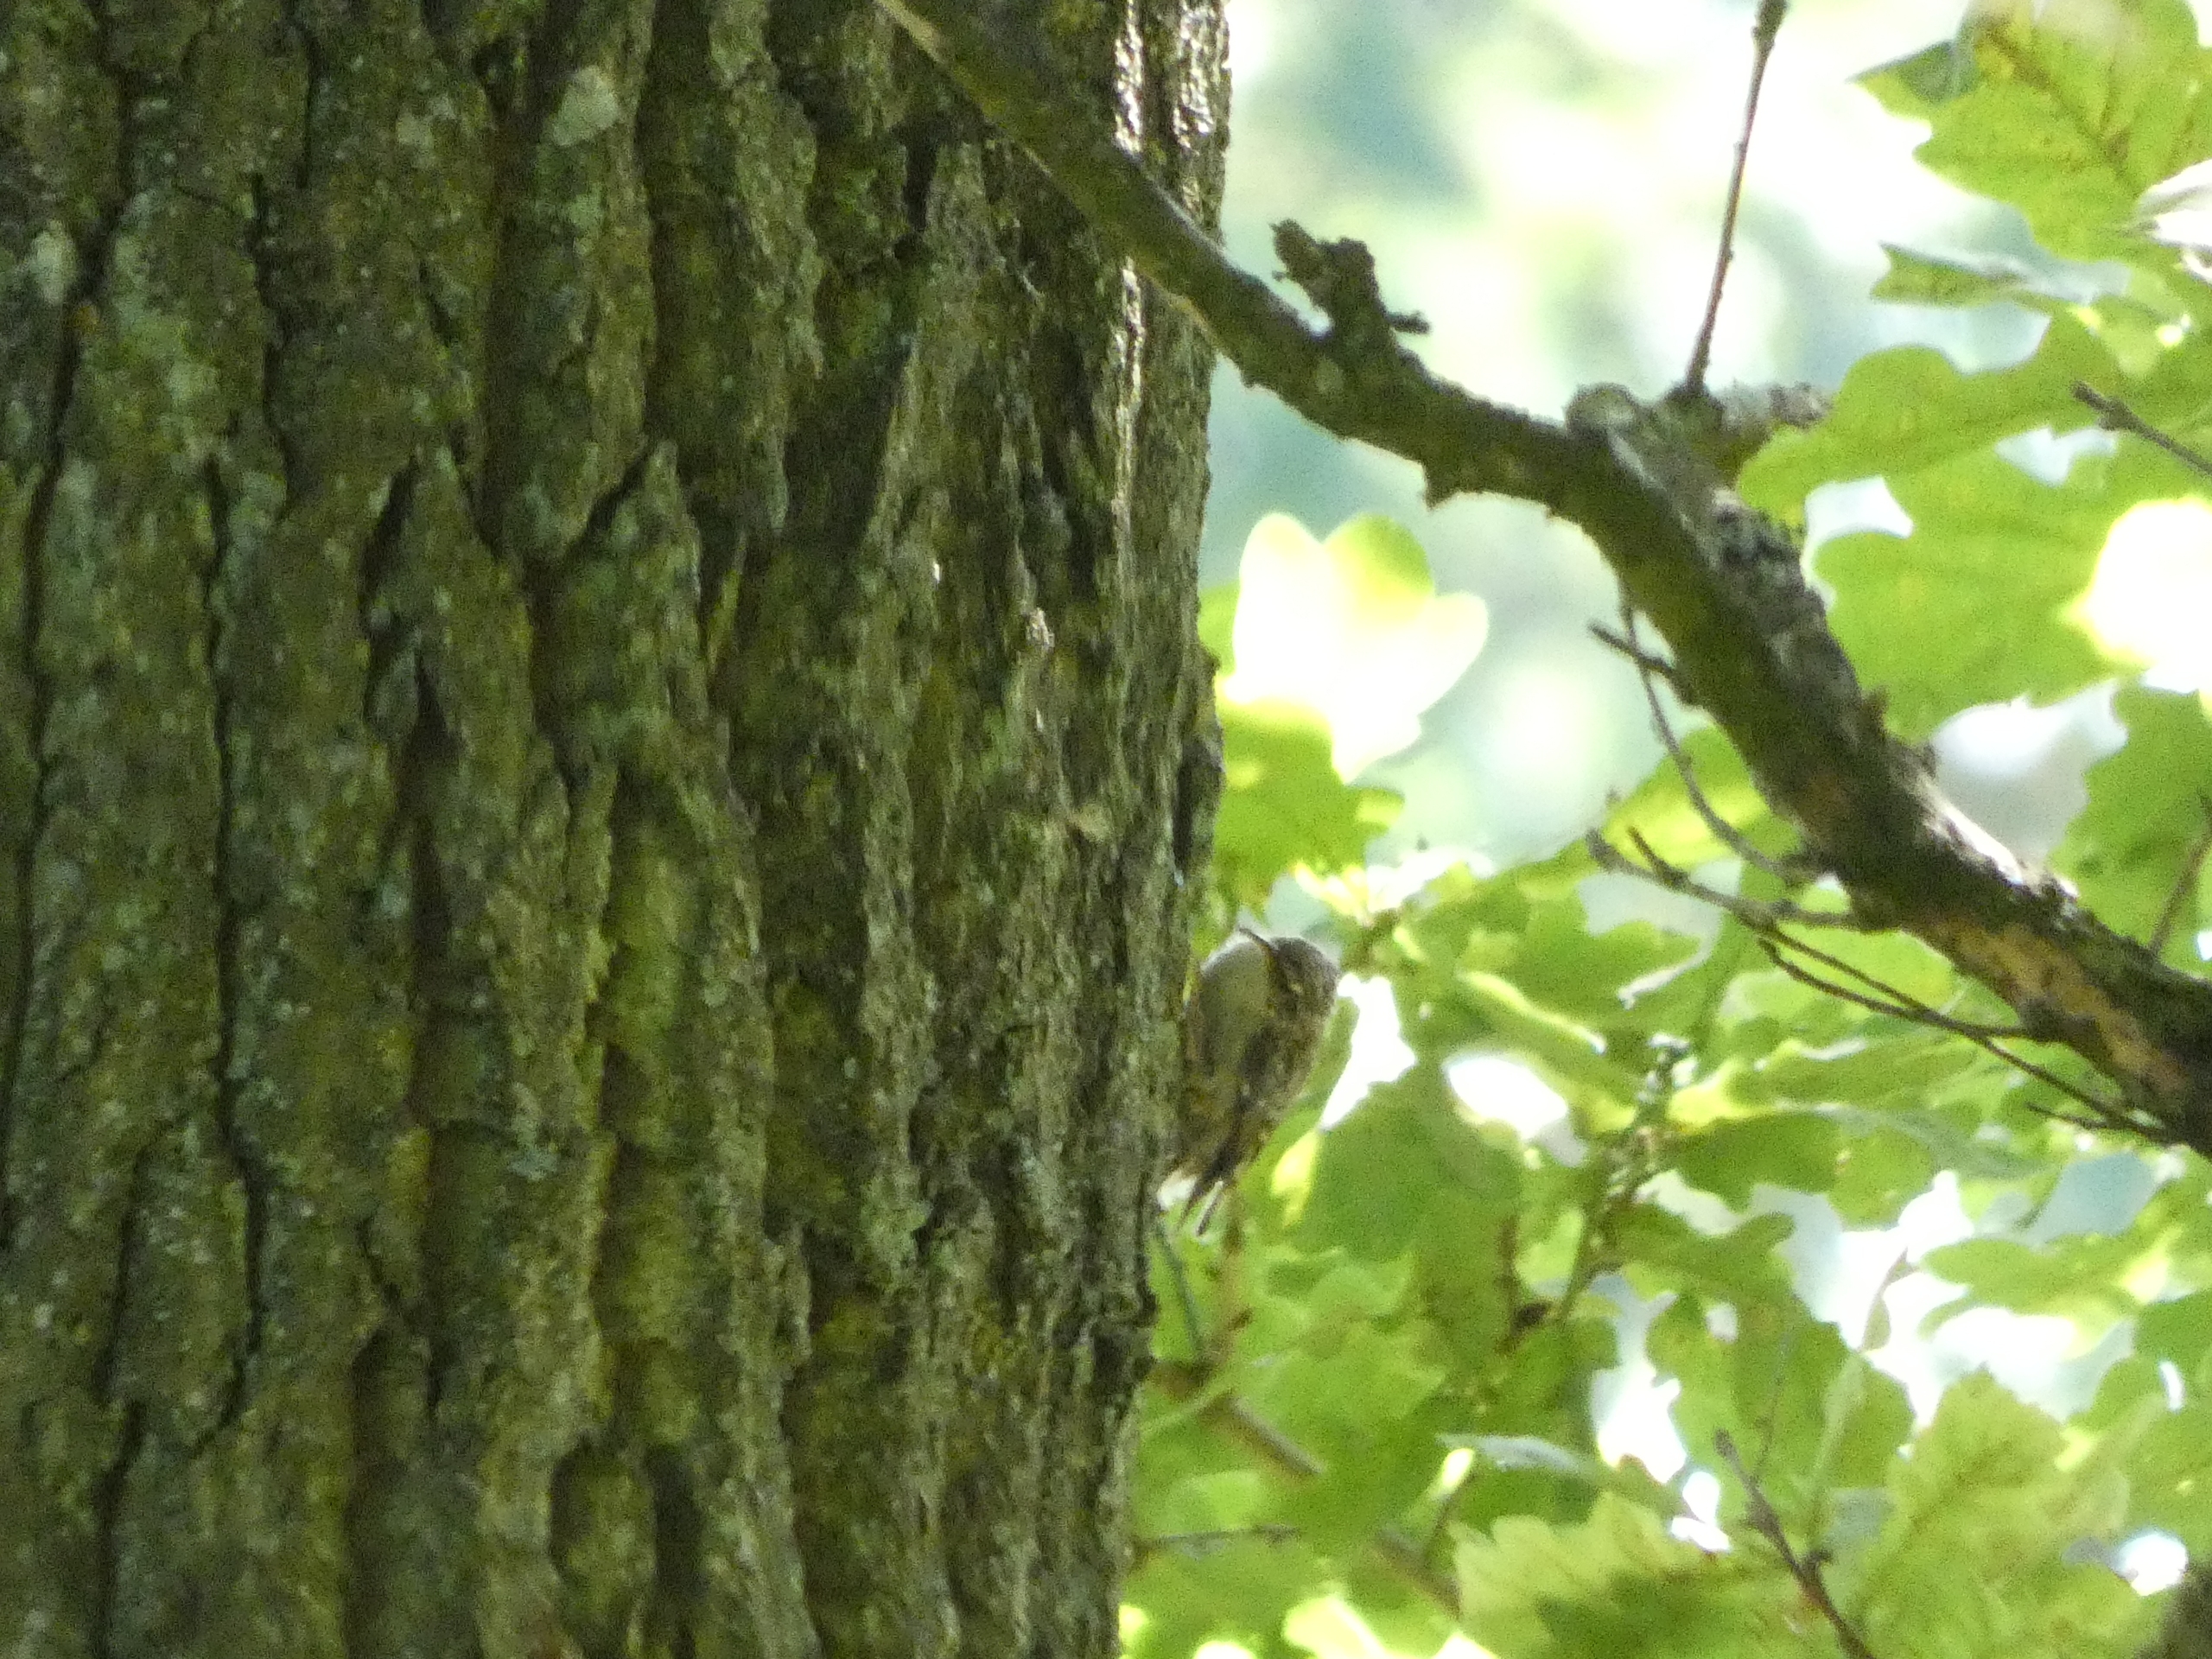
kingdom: Animalia
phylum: Chordata
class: Aves
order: Passeriformes
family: Certhiidae
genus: Certhia
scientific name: Certhia familiaris
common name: Træløber
